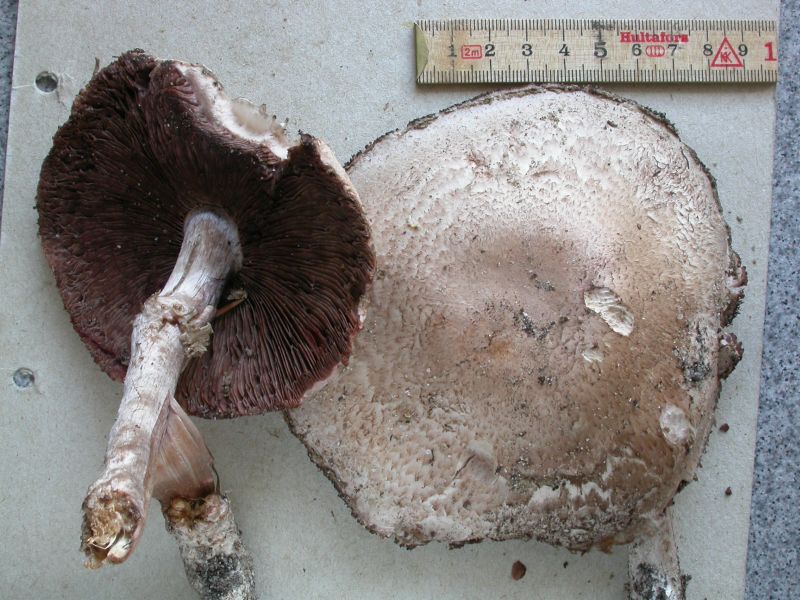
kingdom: Fungi
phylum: Basidiomycota
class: Agaricomycetes
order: Agaricales
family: Agaricaceae
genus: Agaricus
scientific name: Agaricus sylvaticus
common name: lille blod-champignon
